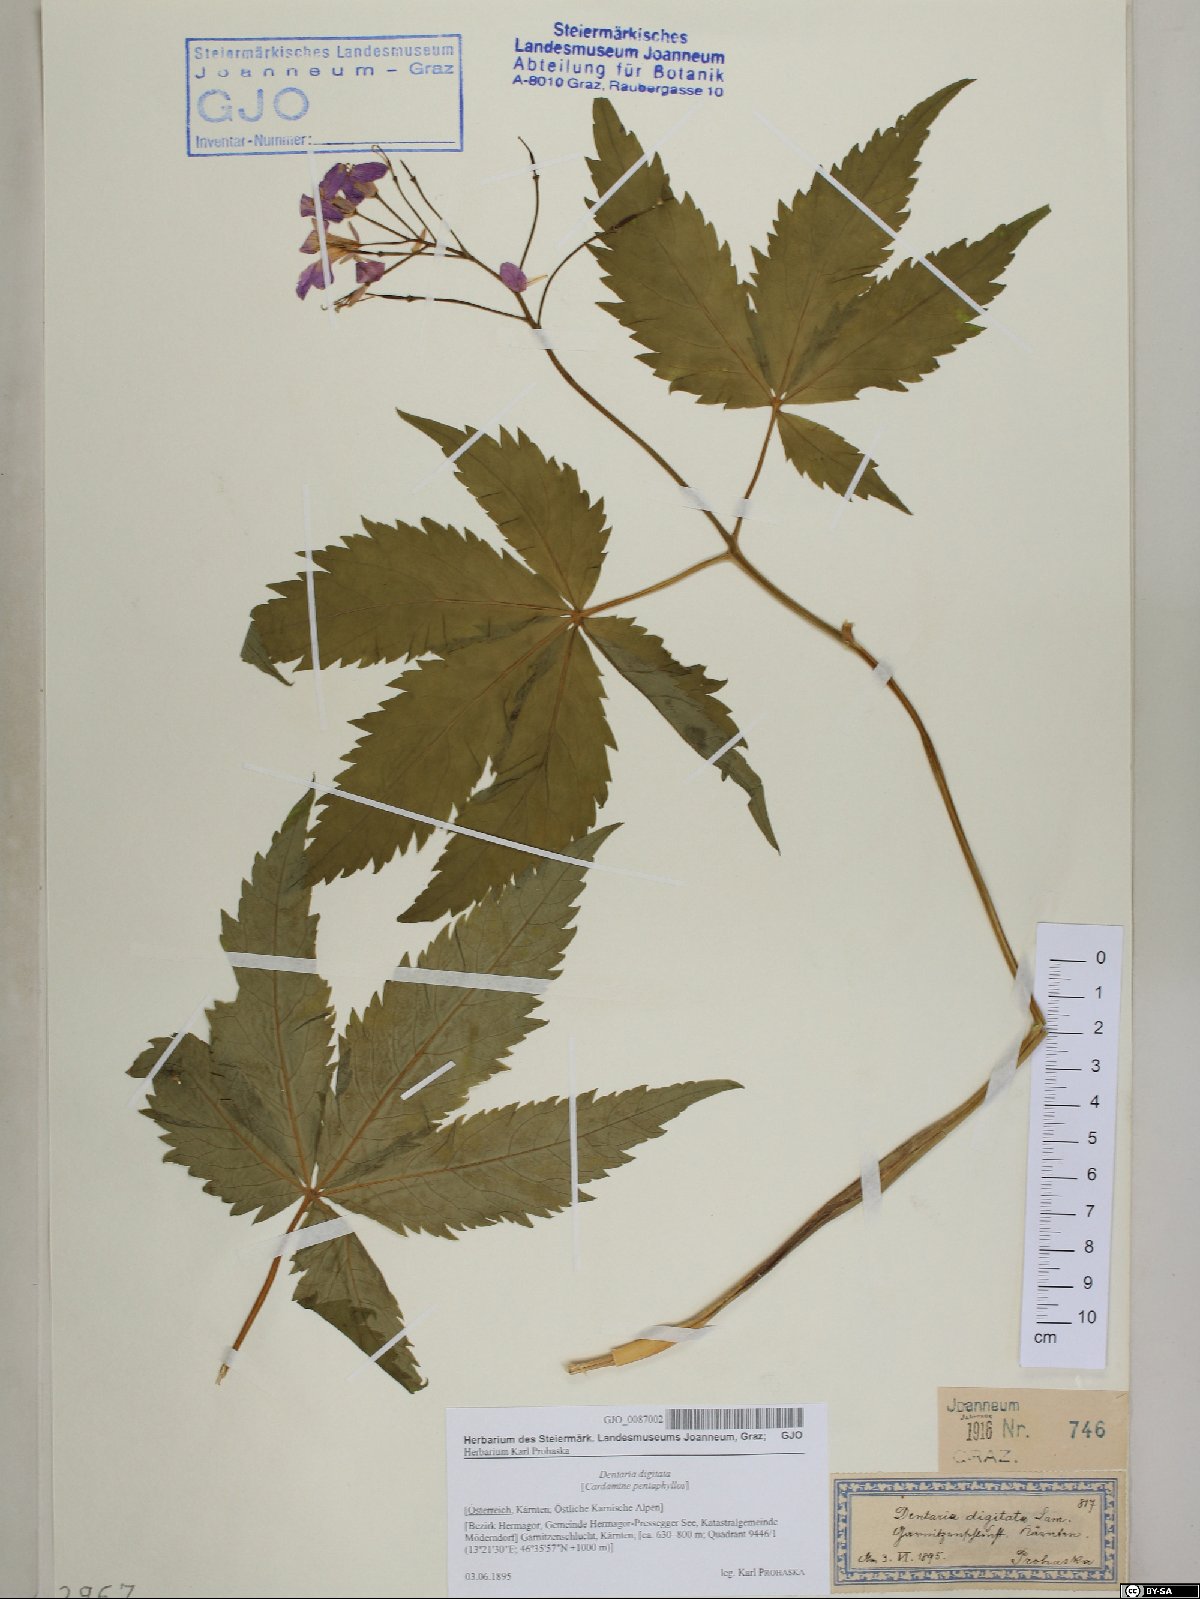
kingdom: Plantae
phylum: Tracheophyta
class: Magnoliopsida
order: Brassicales
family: Brassicaceae
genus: Cardamine
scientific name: Cardamine pentaphyllos
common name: Five-leaflet bitter-cress
